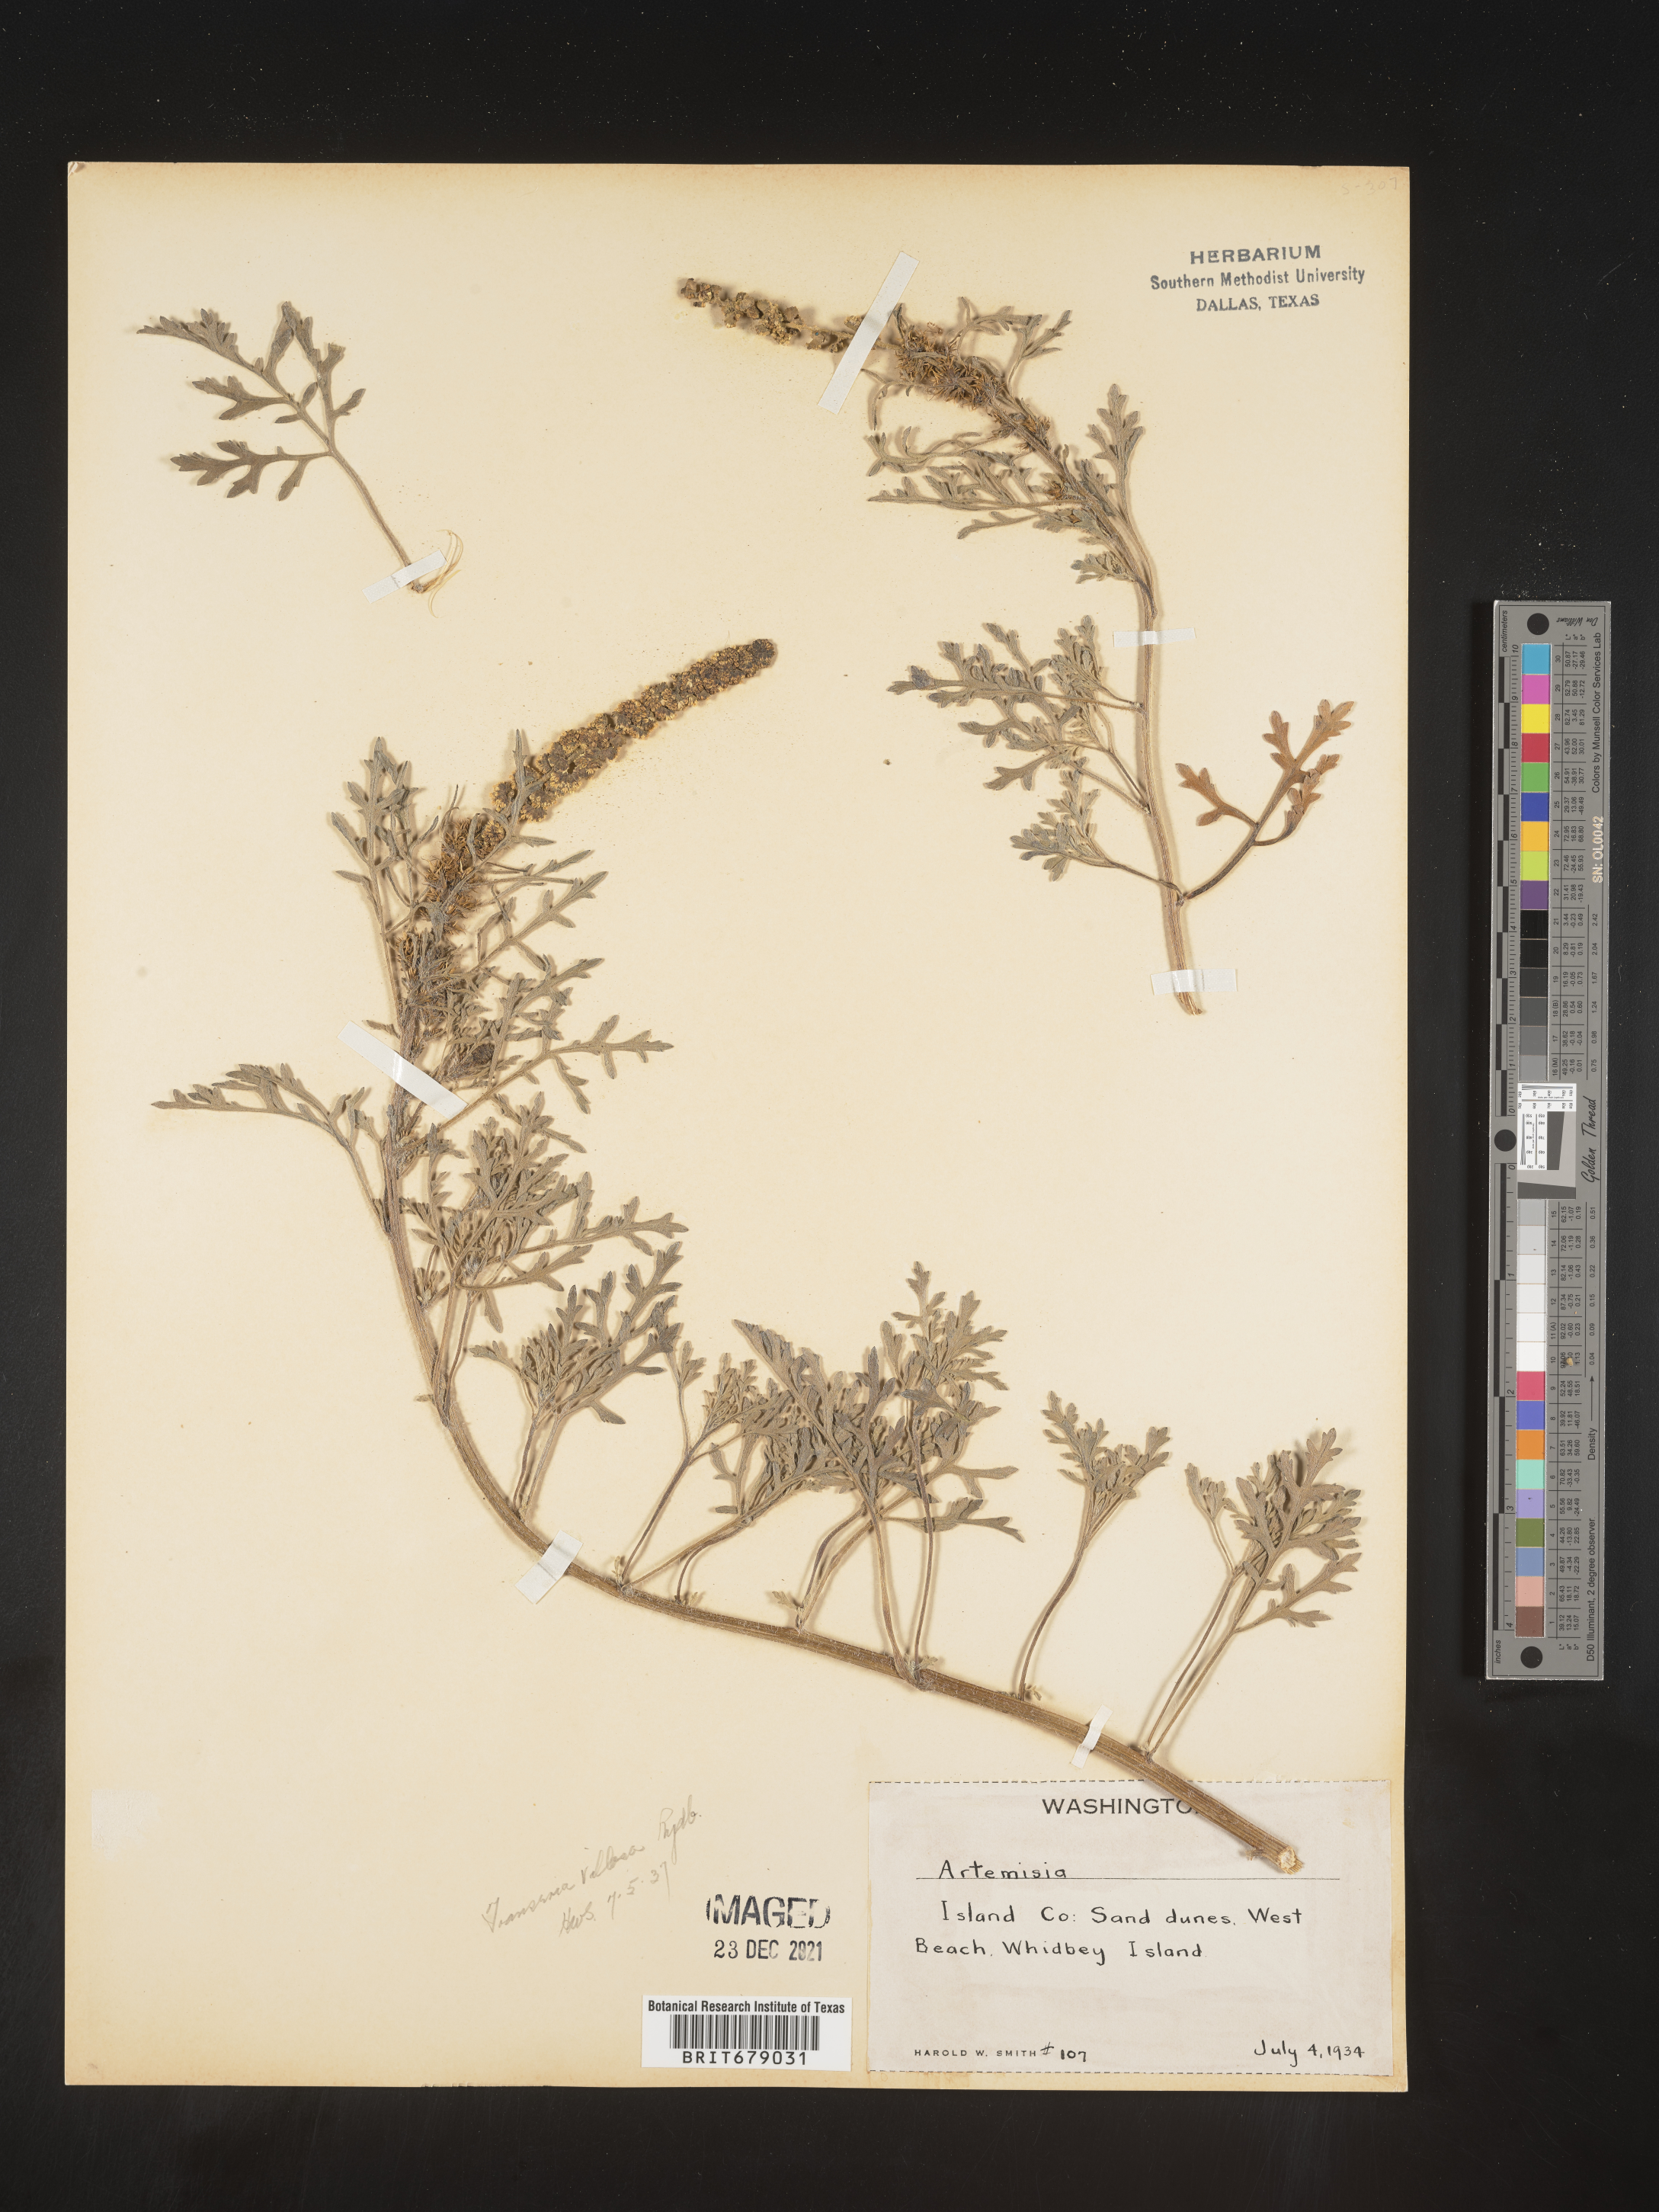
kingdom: Plantae
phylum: Tracheophyta
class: Magnoliopsida
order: Asterales
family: Asteraceae
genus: Ambrosia
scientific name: Ambrosia
